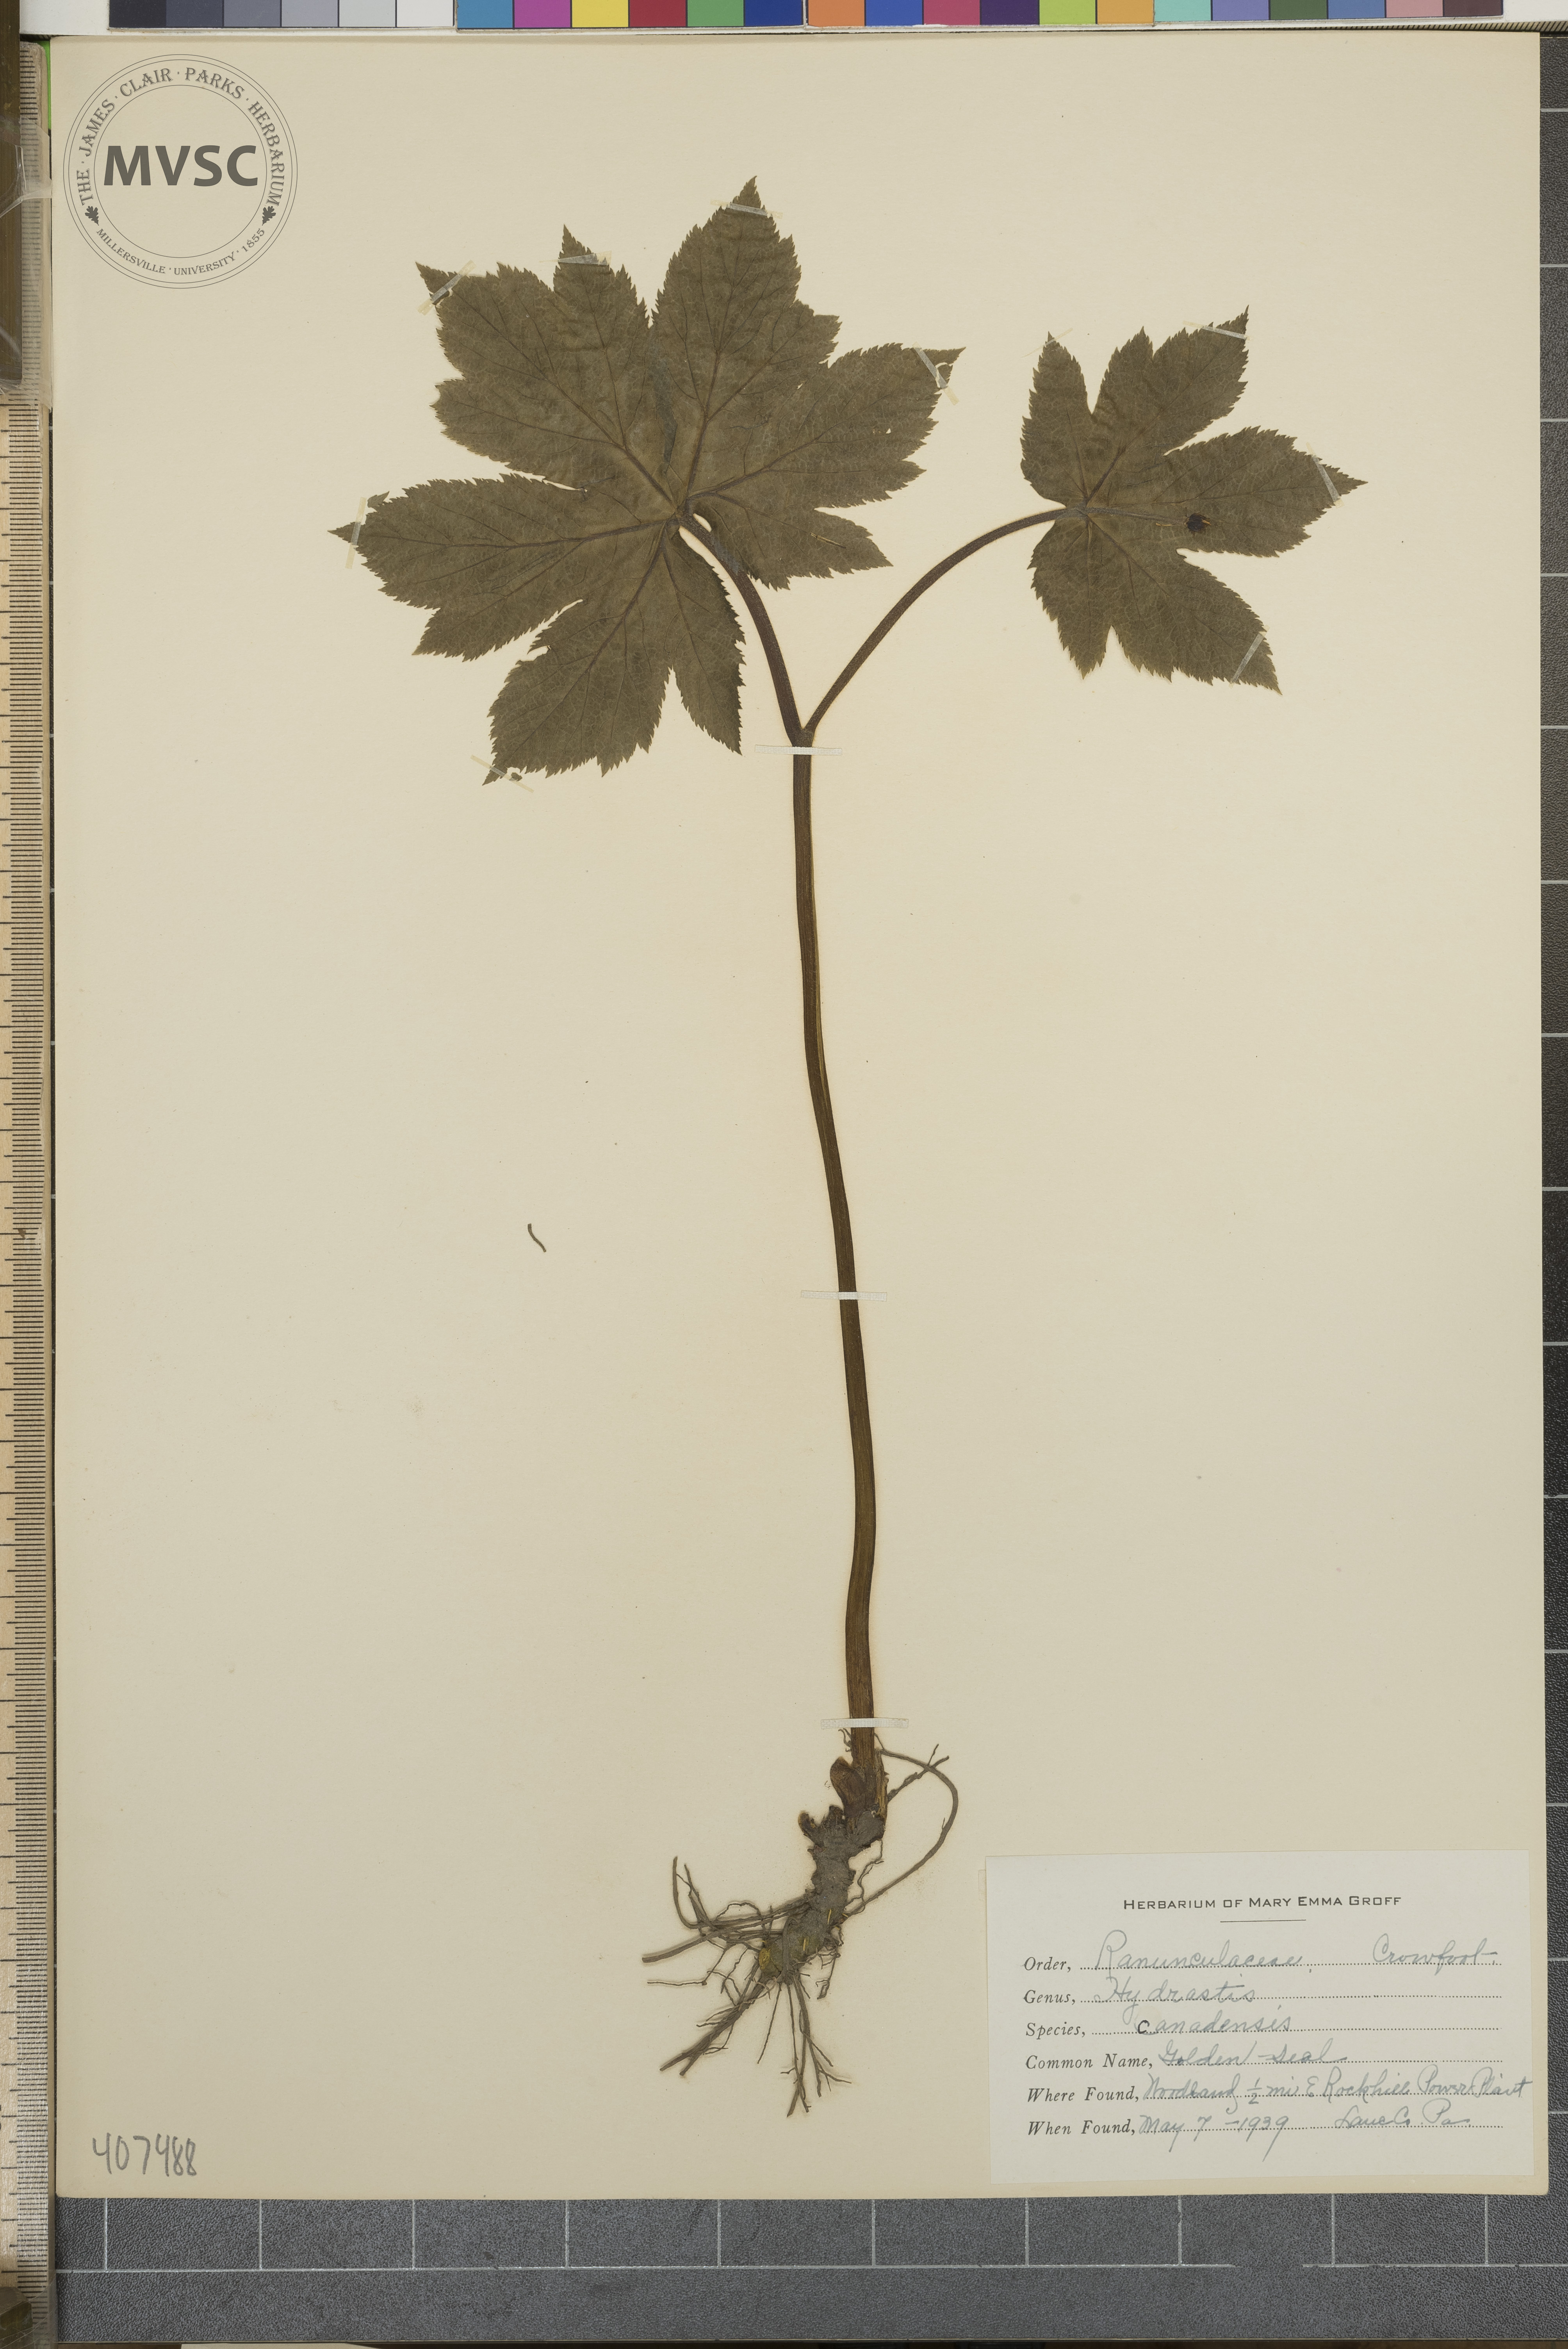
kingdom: Plantae
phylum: Tracheophyta
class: Magnoliopsida
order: Ranunculales
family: Ranunculaceae
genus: Hydrastis
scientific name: Hydrastis canadensis
